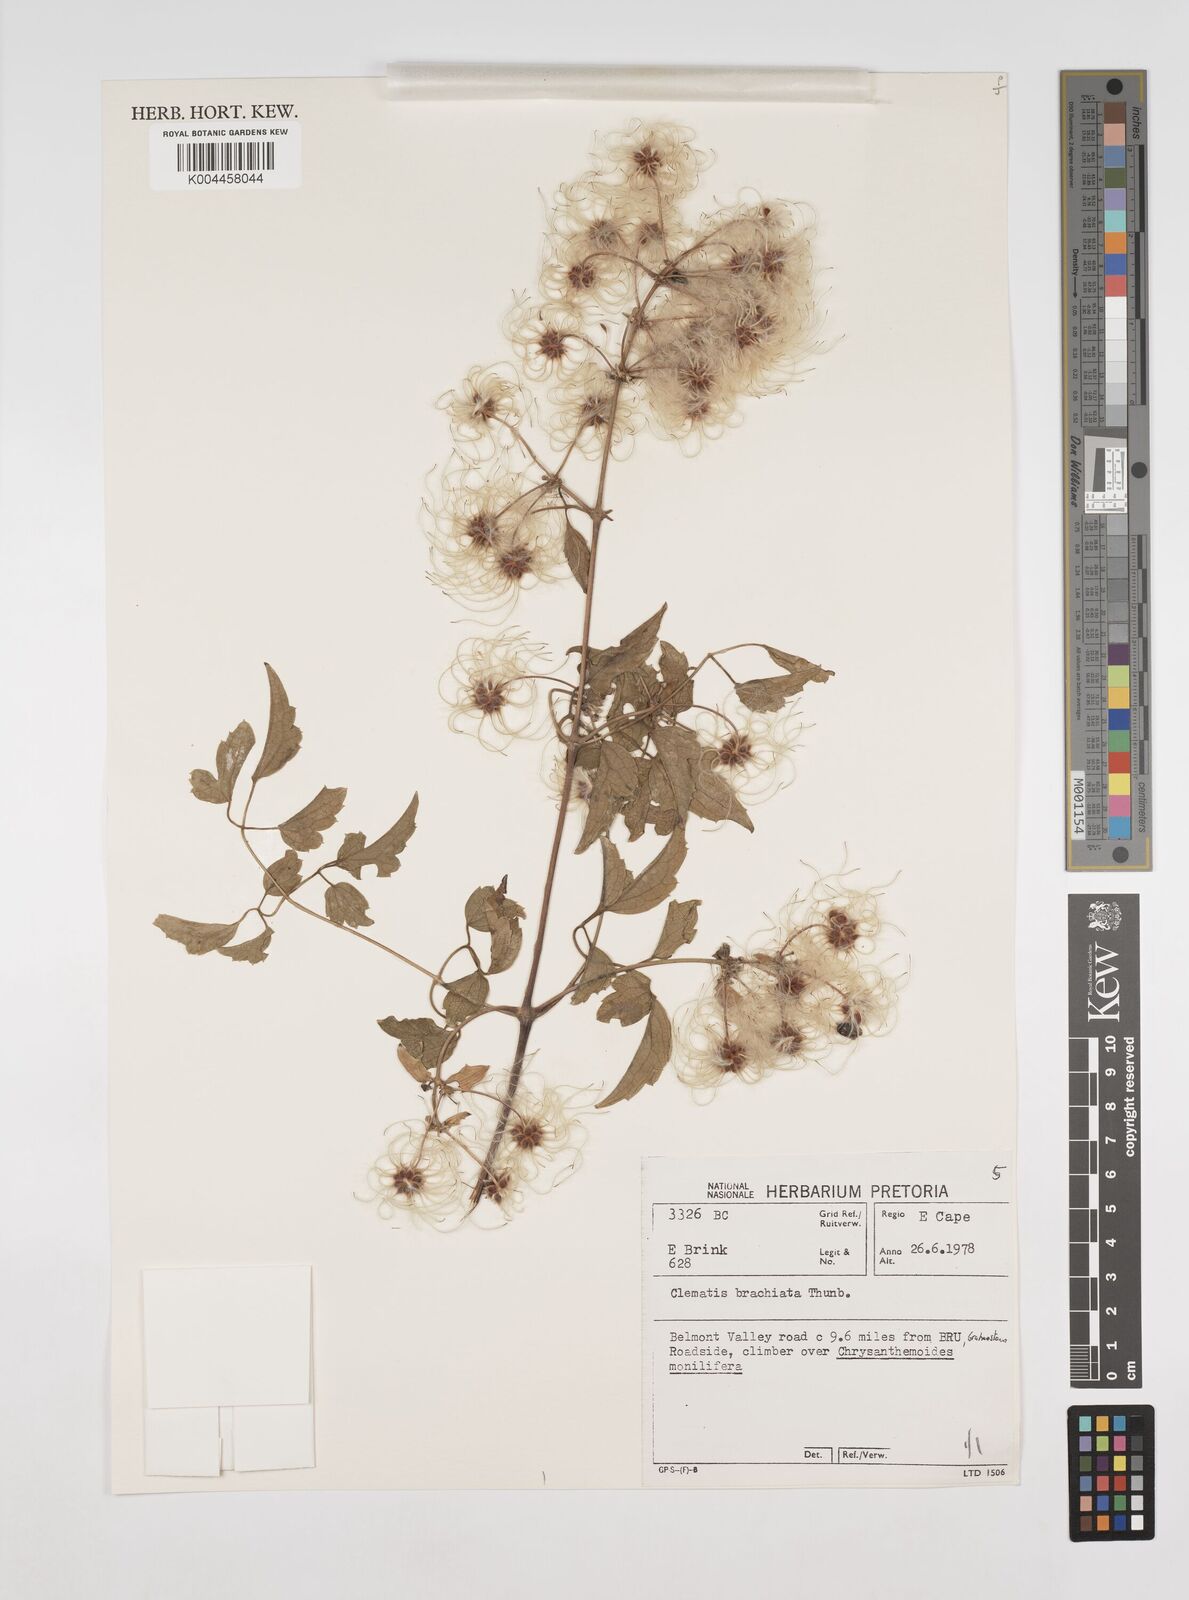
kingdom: Plantae
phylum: Tracheophyta
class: Magnoliopsida
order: Ranunculales
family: Ranunculaceae
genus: Clematis
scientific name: Clematis brachiata
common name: Traveler's-joy
